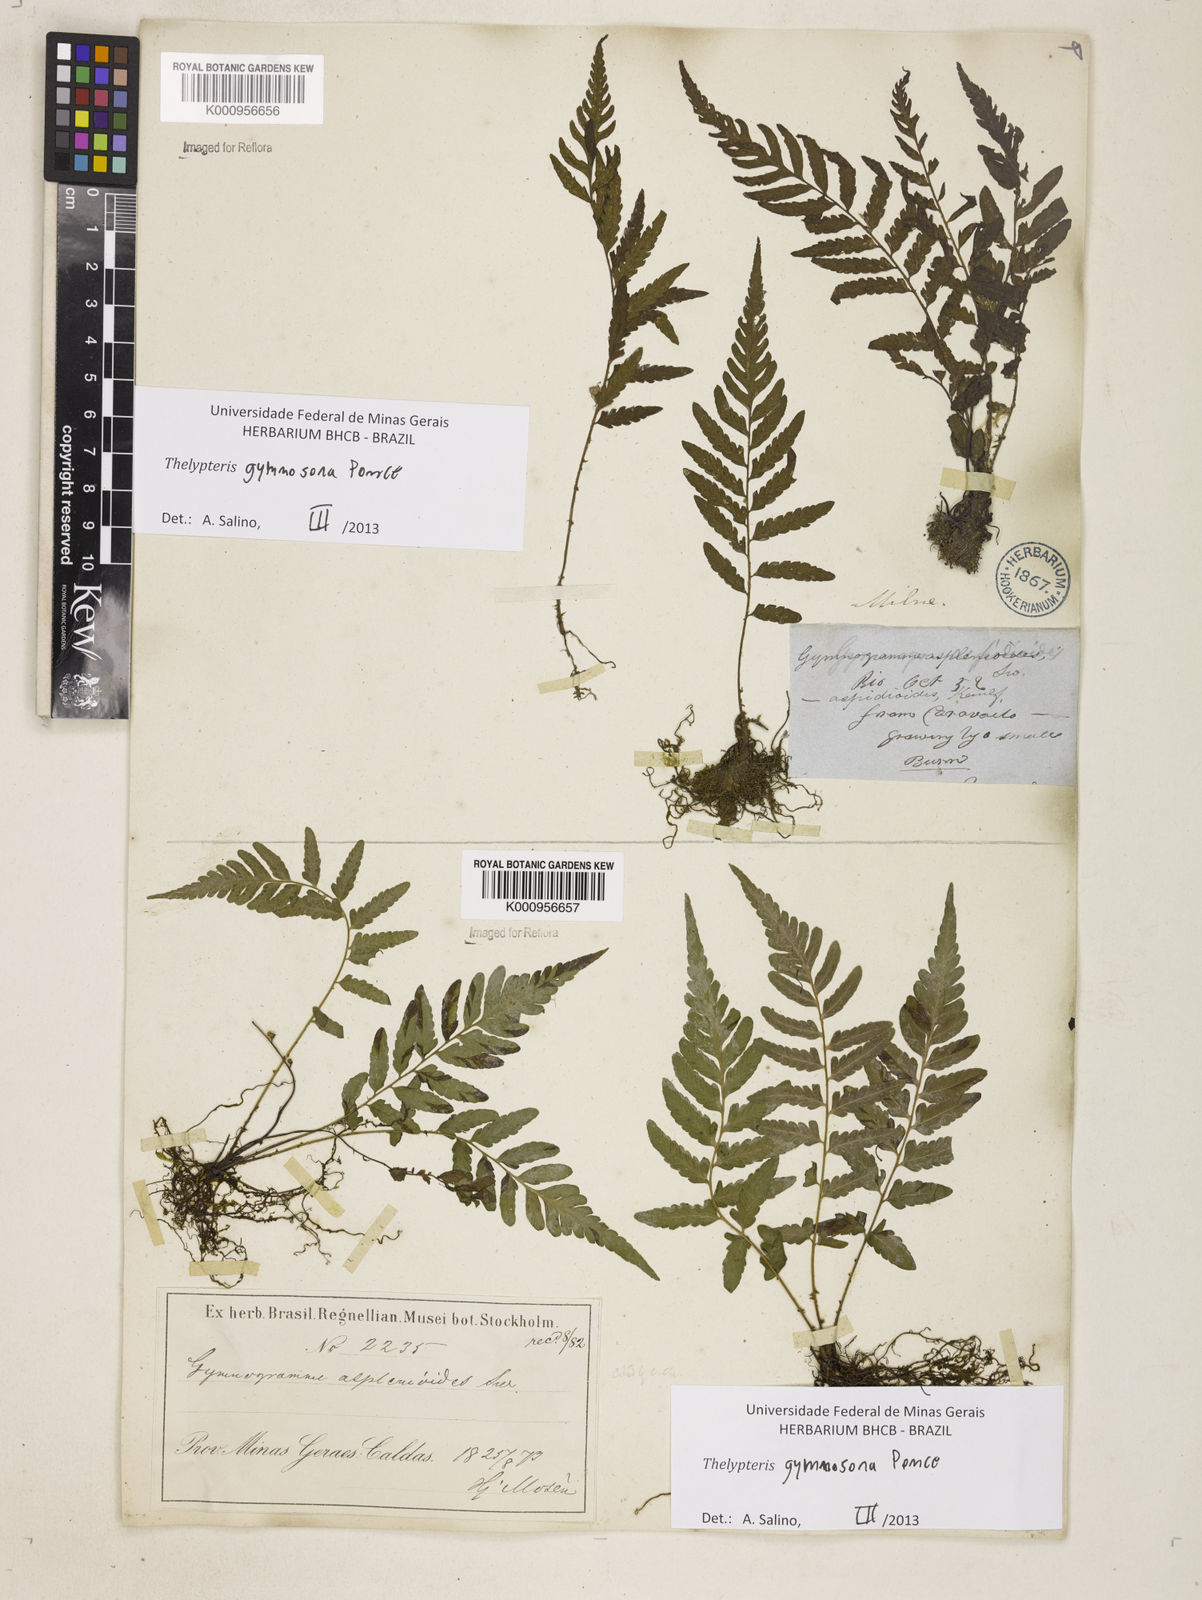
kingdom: Plantae
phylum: Tracheophyta
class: Polypodiopsida
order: Polypodiales
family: Thelypteridaceae
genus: Amauropelta
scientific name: Amauropelta
